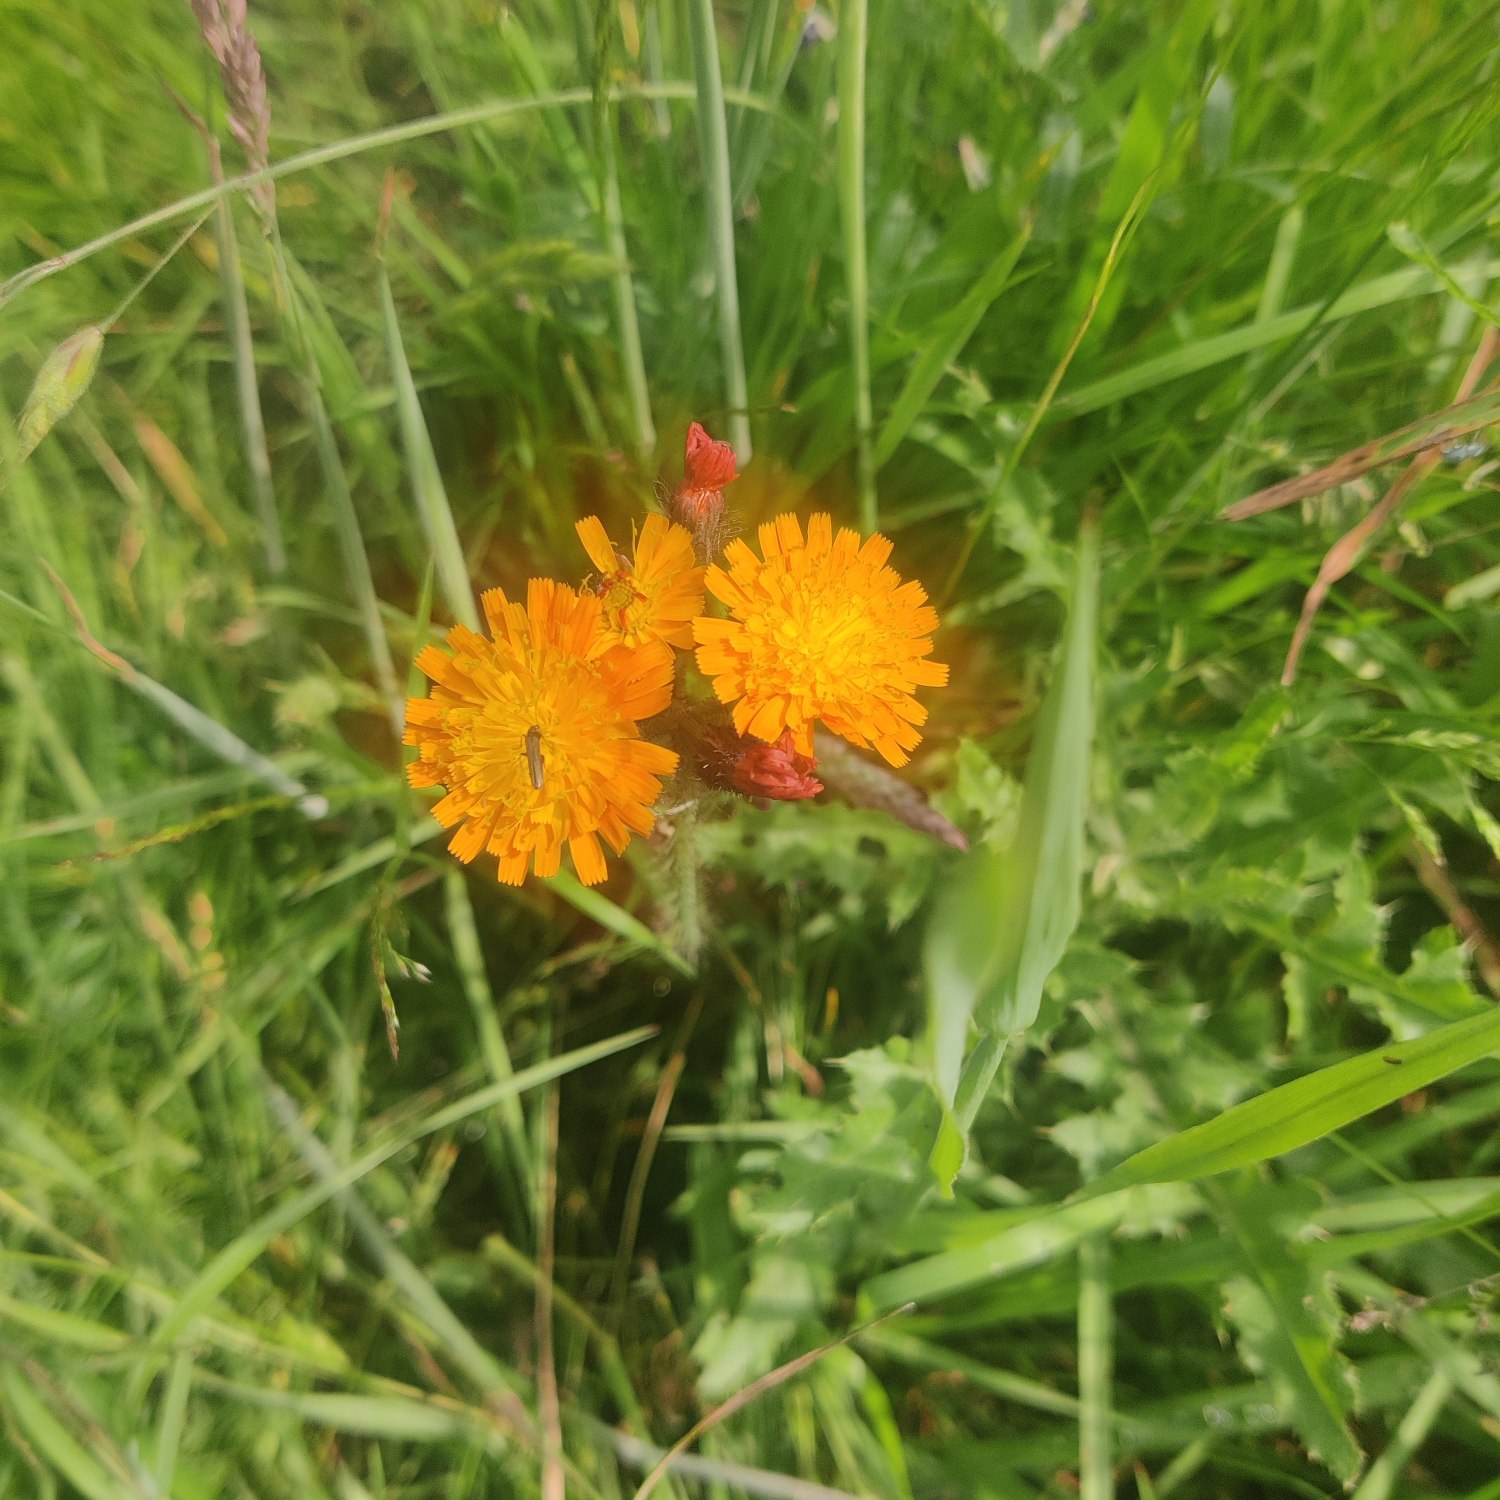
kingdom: Plantae
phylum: Tracheophyta
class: Magnoliopsida
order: Asterales
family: Asteraceae
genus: Pilosella
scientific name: Pilosella aurantiaca
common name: Pomerans-høgeurt
